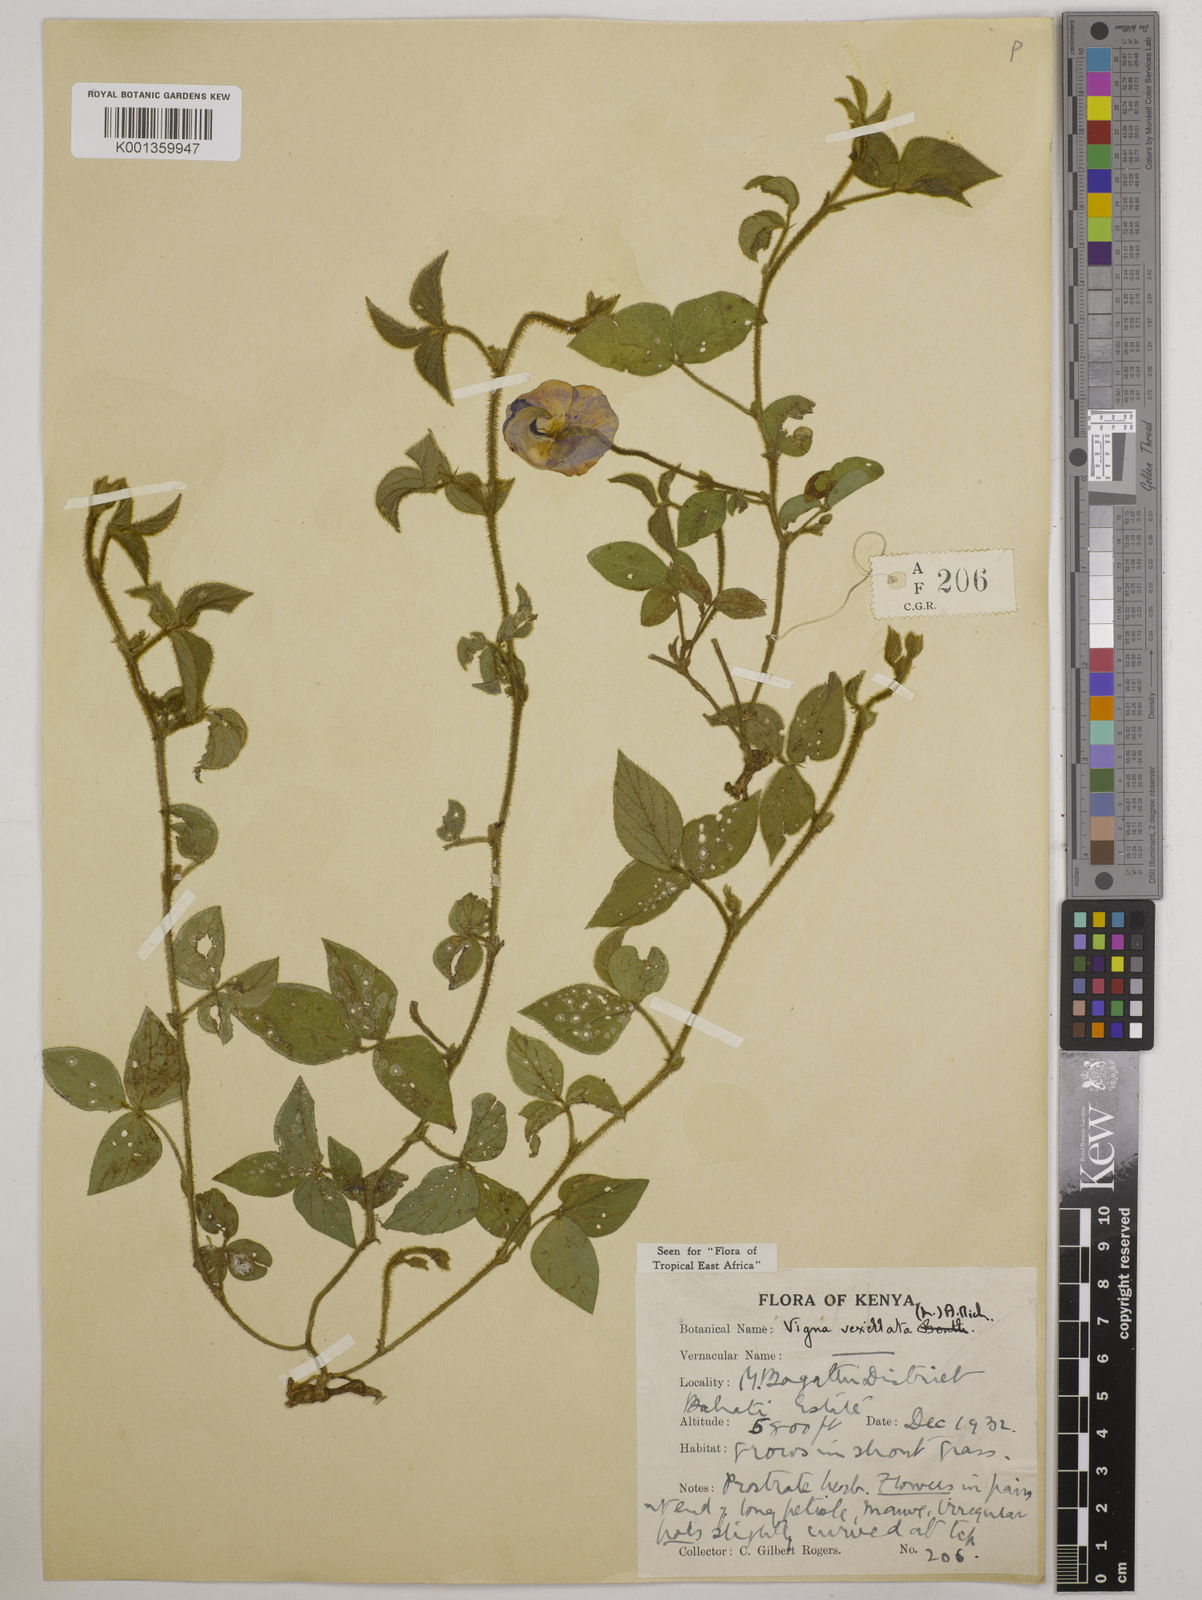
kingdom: Plantae
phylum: Tracheophyta
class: Magnoliopsida
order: Fabales
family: Fabaceae
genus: Vigna
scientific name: Vigna vexillata
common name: Zombi pea
